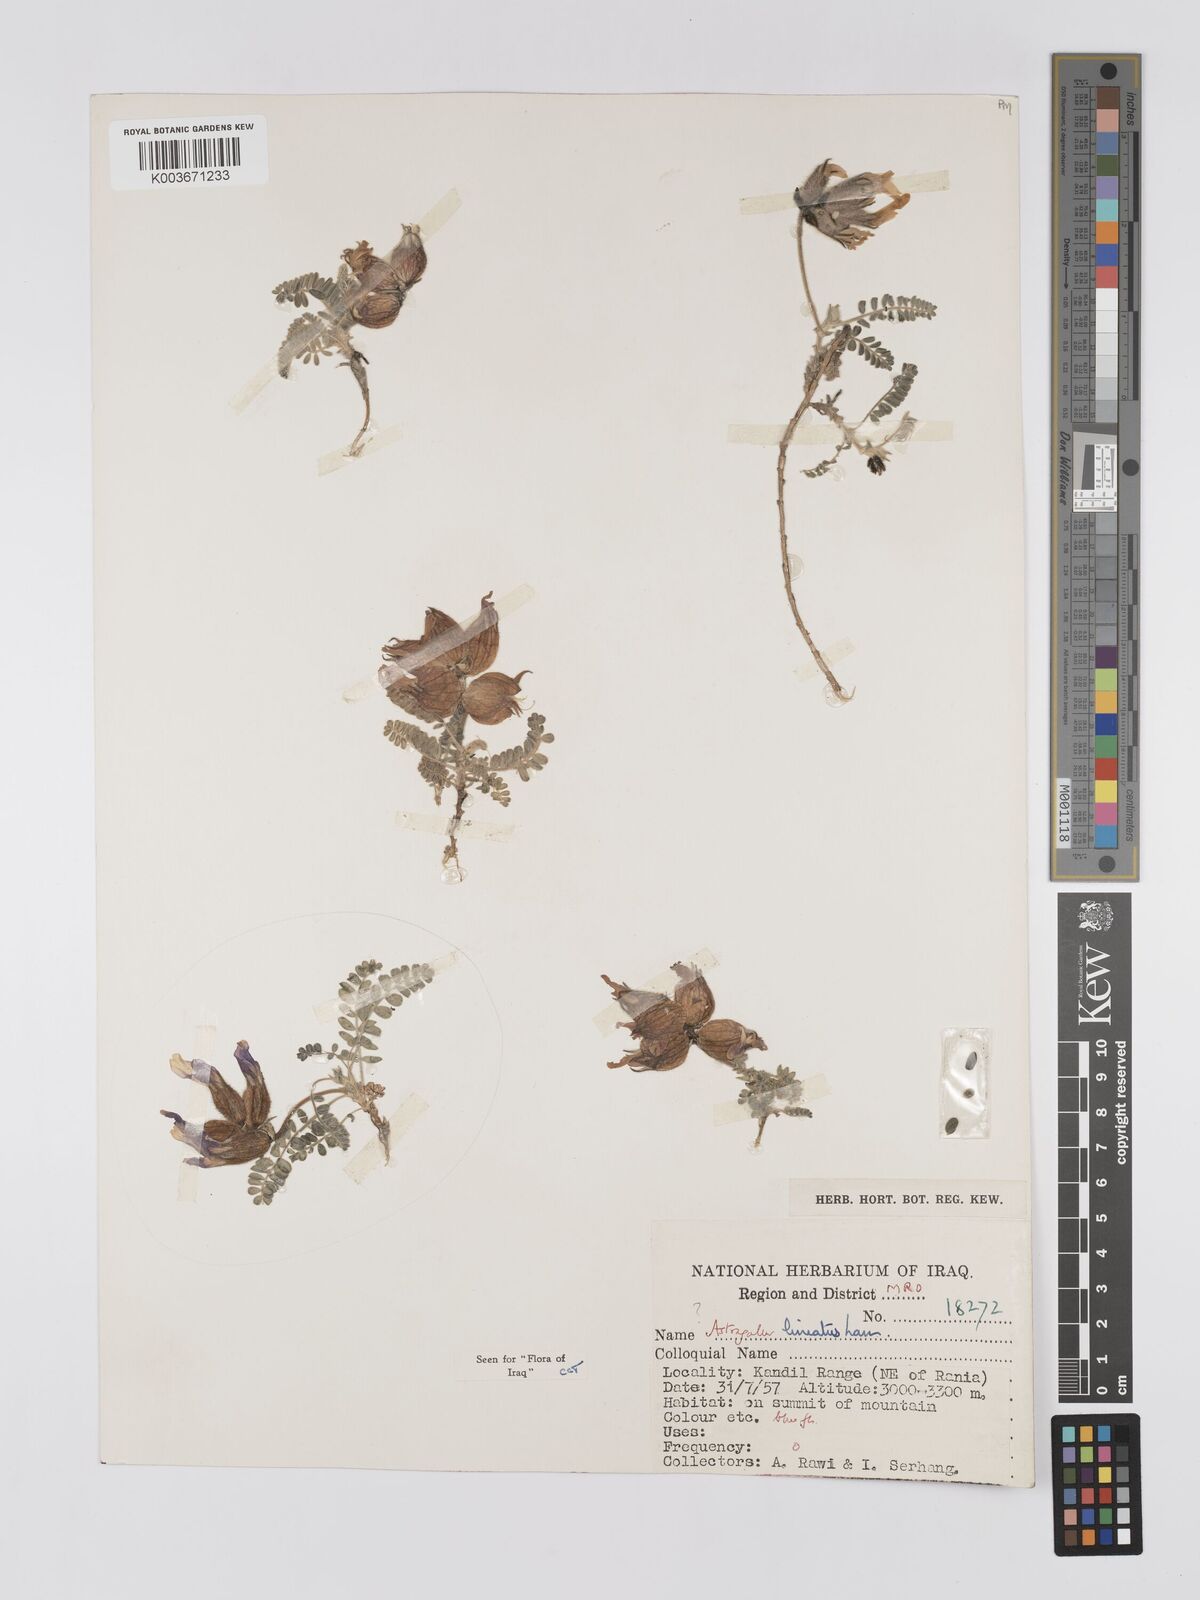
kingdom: Plantae
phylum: Tracheophyta
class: Magnoliopsida
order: Fabales
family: Fabaceae
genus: Astragalus
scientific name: Astragalus lineatus
